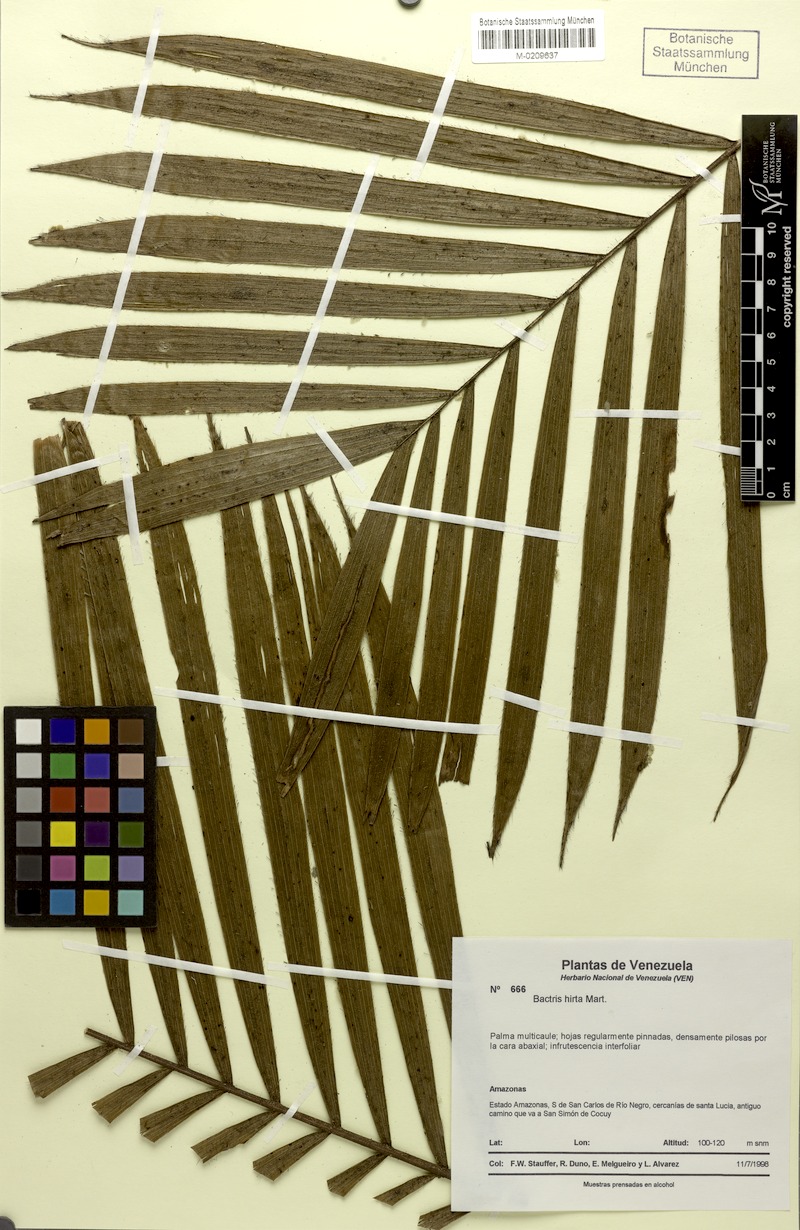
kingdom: Plantae
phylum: Tracheophyta
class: Liliopsida
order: Arecales
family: Arecaceae
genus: Bactris
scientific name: Bactris hirta
